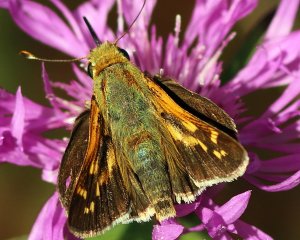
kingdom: Animalia
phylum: Arthropoda
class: Insecta
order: Lepidoptera
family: Hesperiidae
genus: Hesperia
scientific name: Hesperia leonardus
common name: Leonard's Skipper
